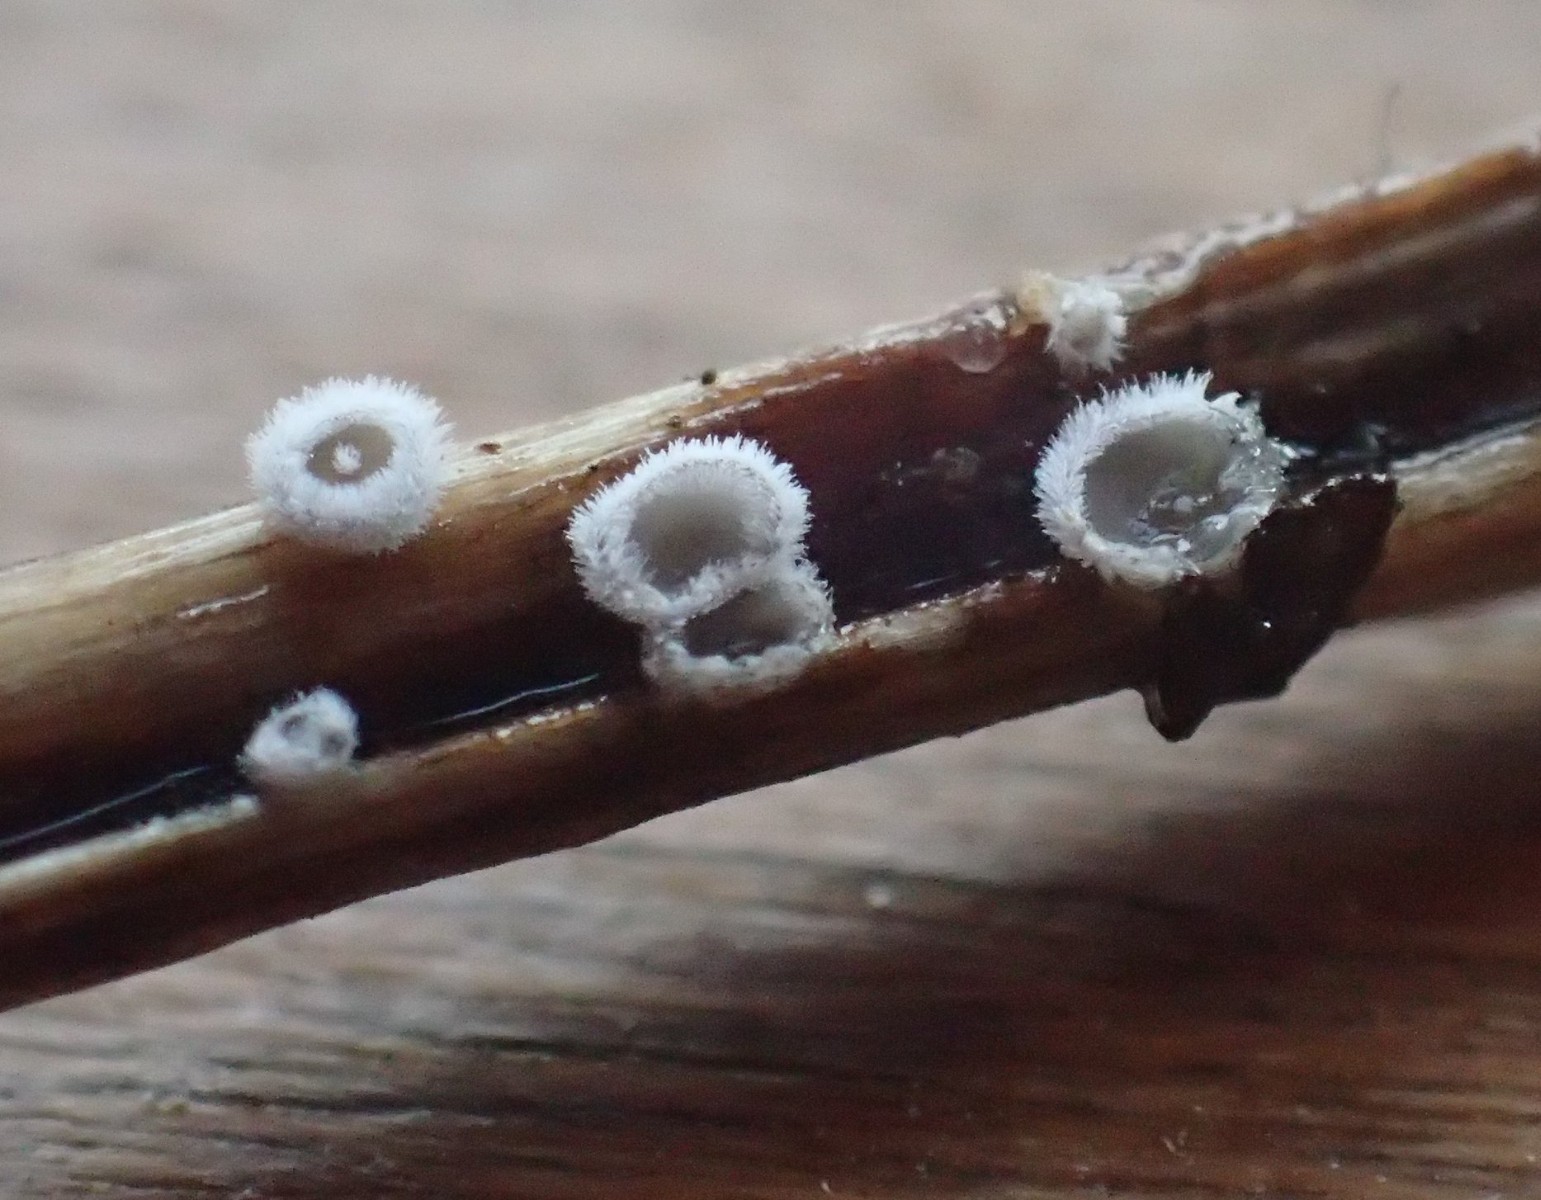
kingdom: Fungi
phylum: Basidiomycota
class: Agaricomycetes
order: Agaricales
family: Niaceae
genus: Lachnella
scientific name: Lachnella alboviolascens
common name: grå frynserede
